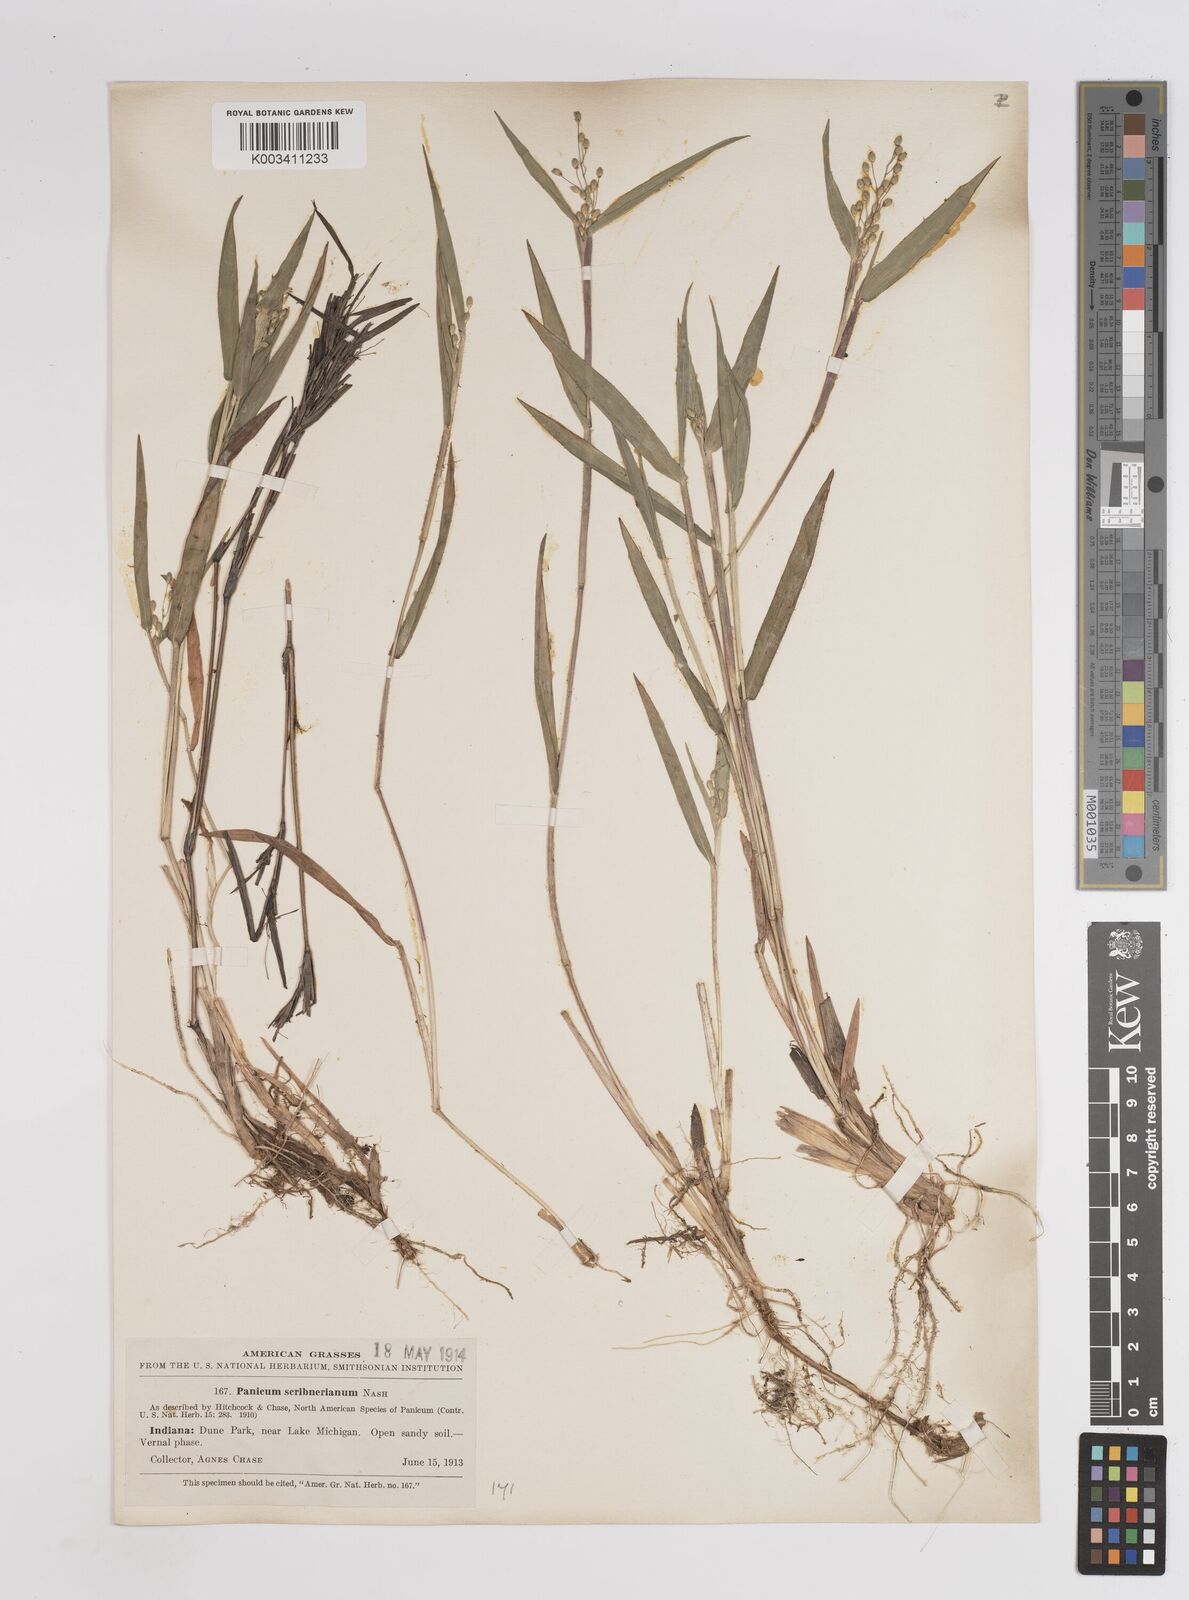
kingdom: Plantae
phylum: Tracheophyta
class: Liliopsida
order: Poales
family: Poaceae
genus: Dichanthelium
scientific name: Dichanthelium scribnerianum
